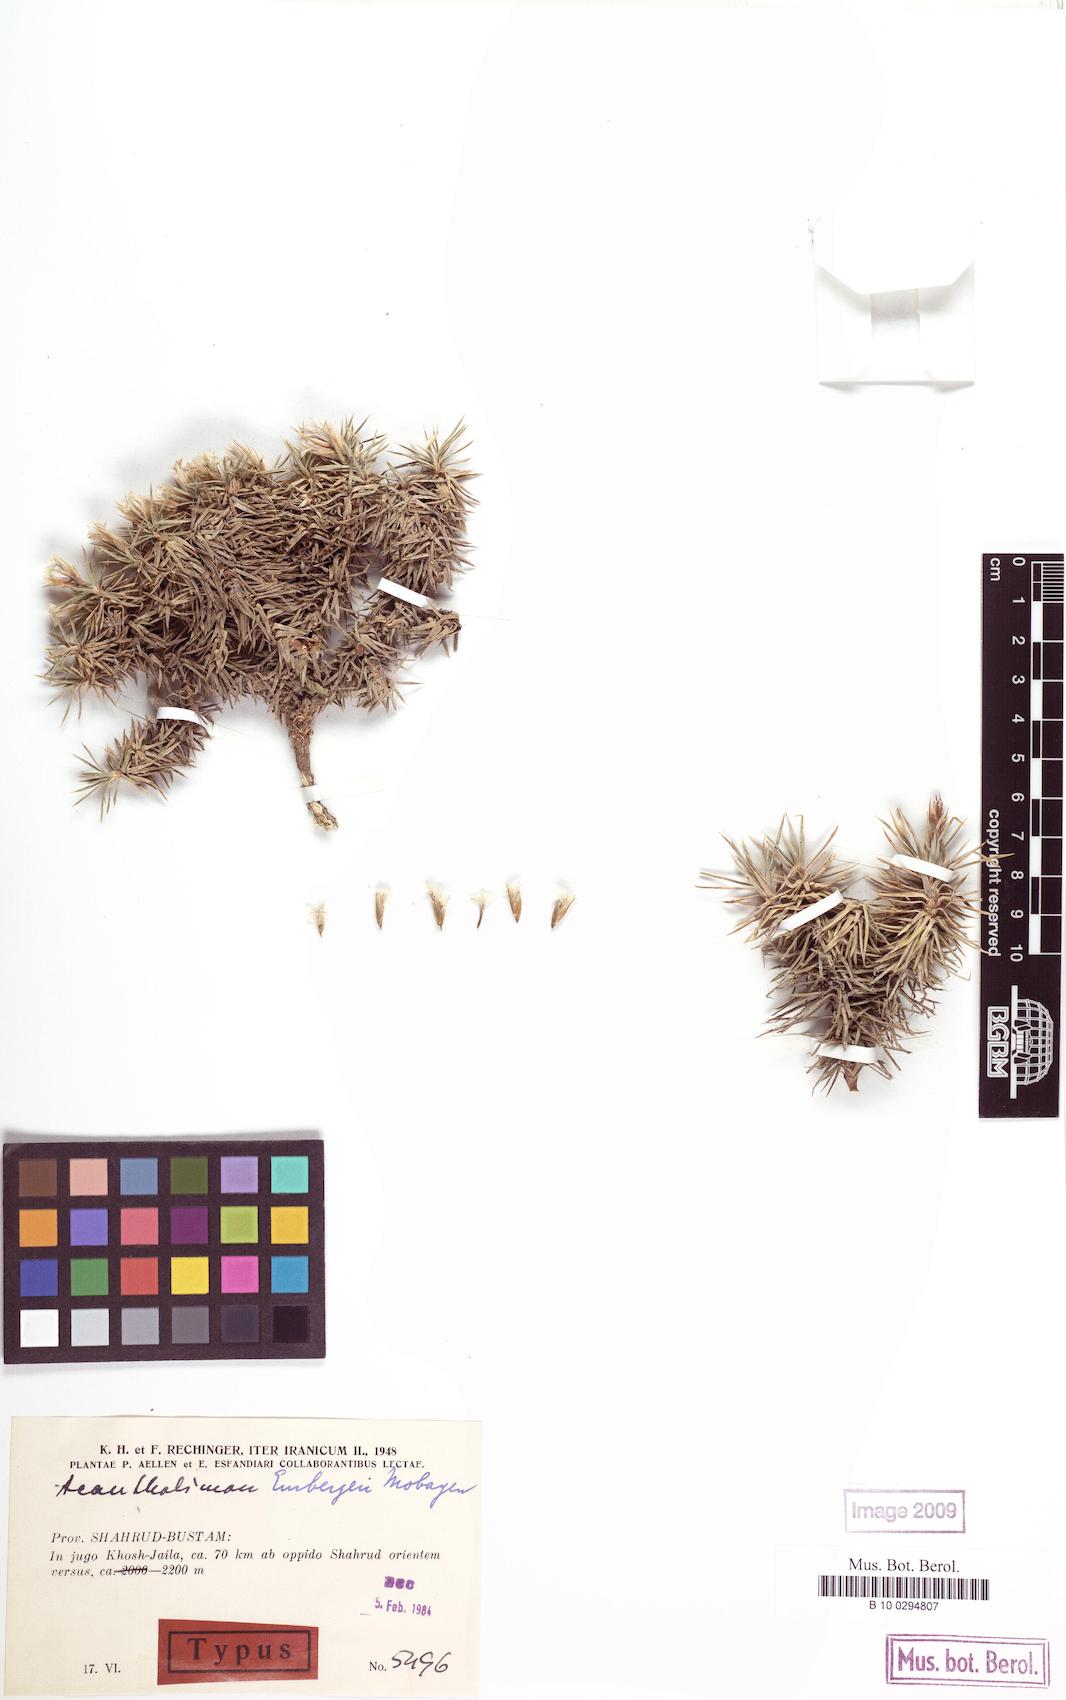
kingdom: Plantae
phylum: Tracheophyta
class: Magnoliopsida
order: Caryophyllales
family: Plumbaginaceae
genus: Acantholimon
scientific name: Acantholimon embergeri
